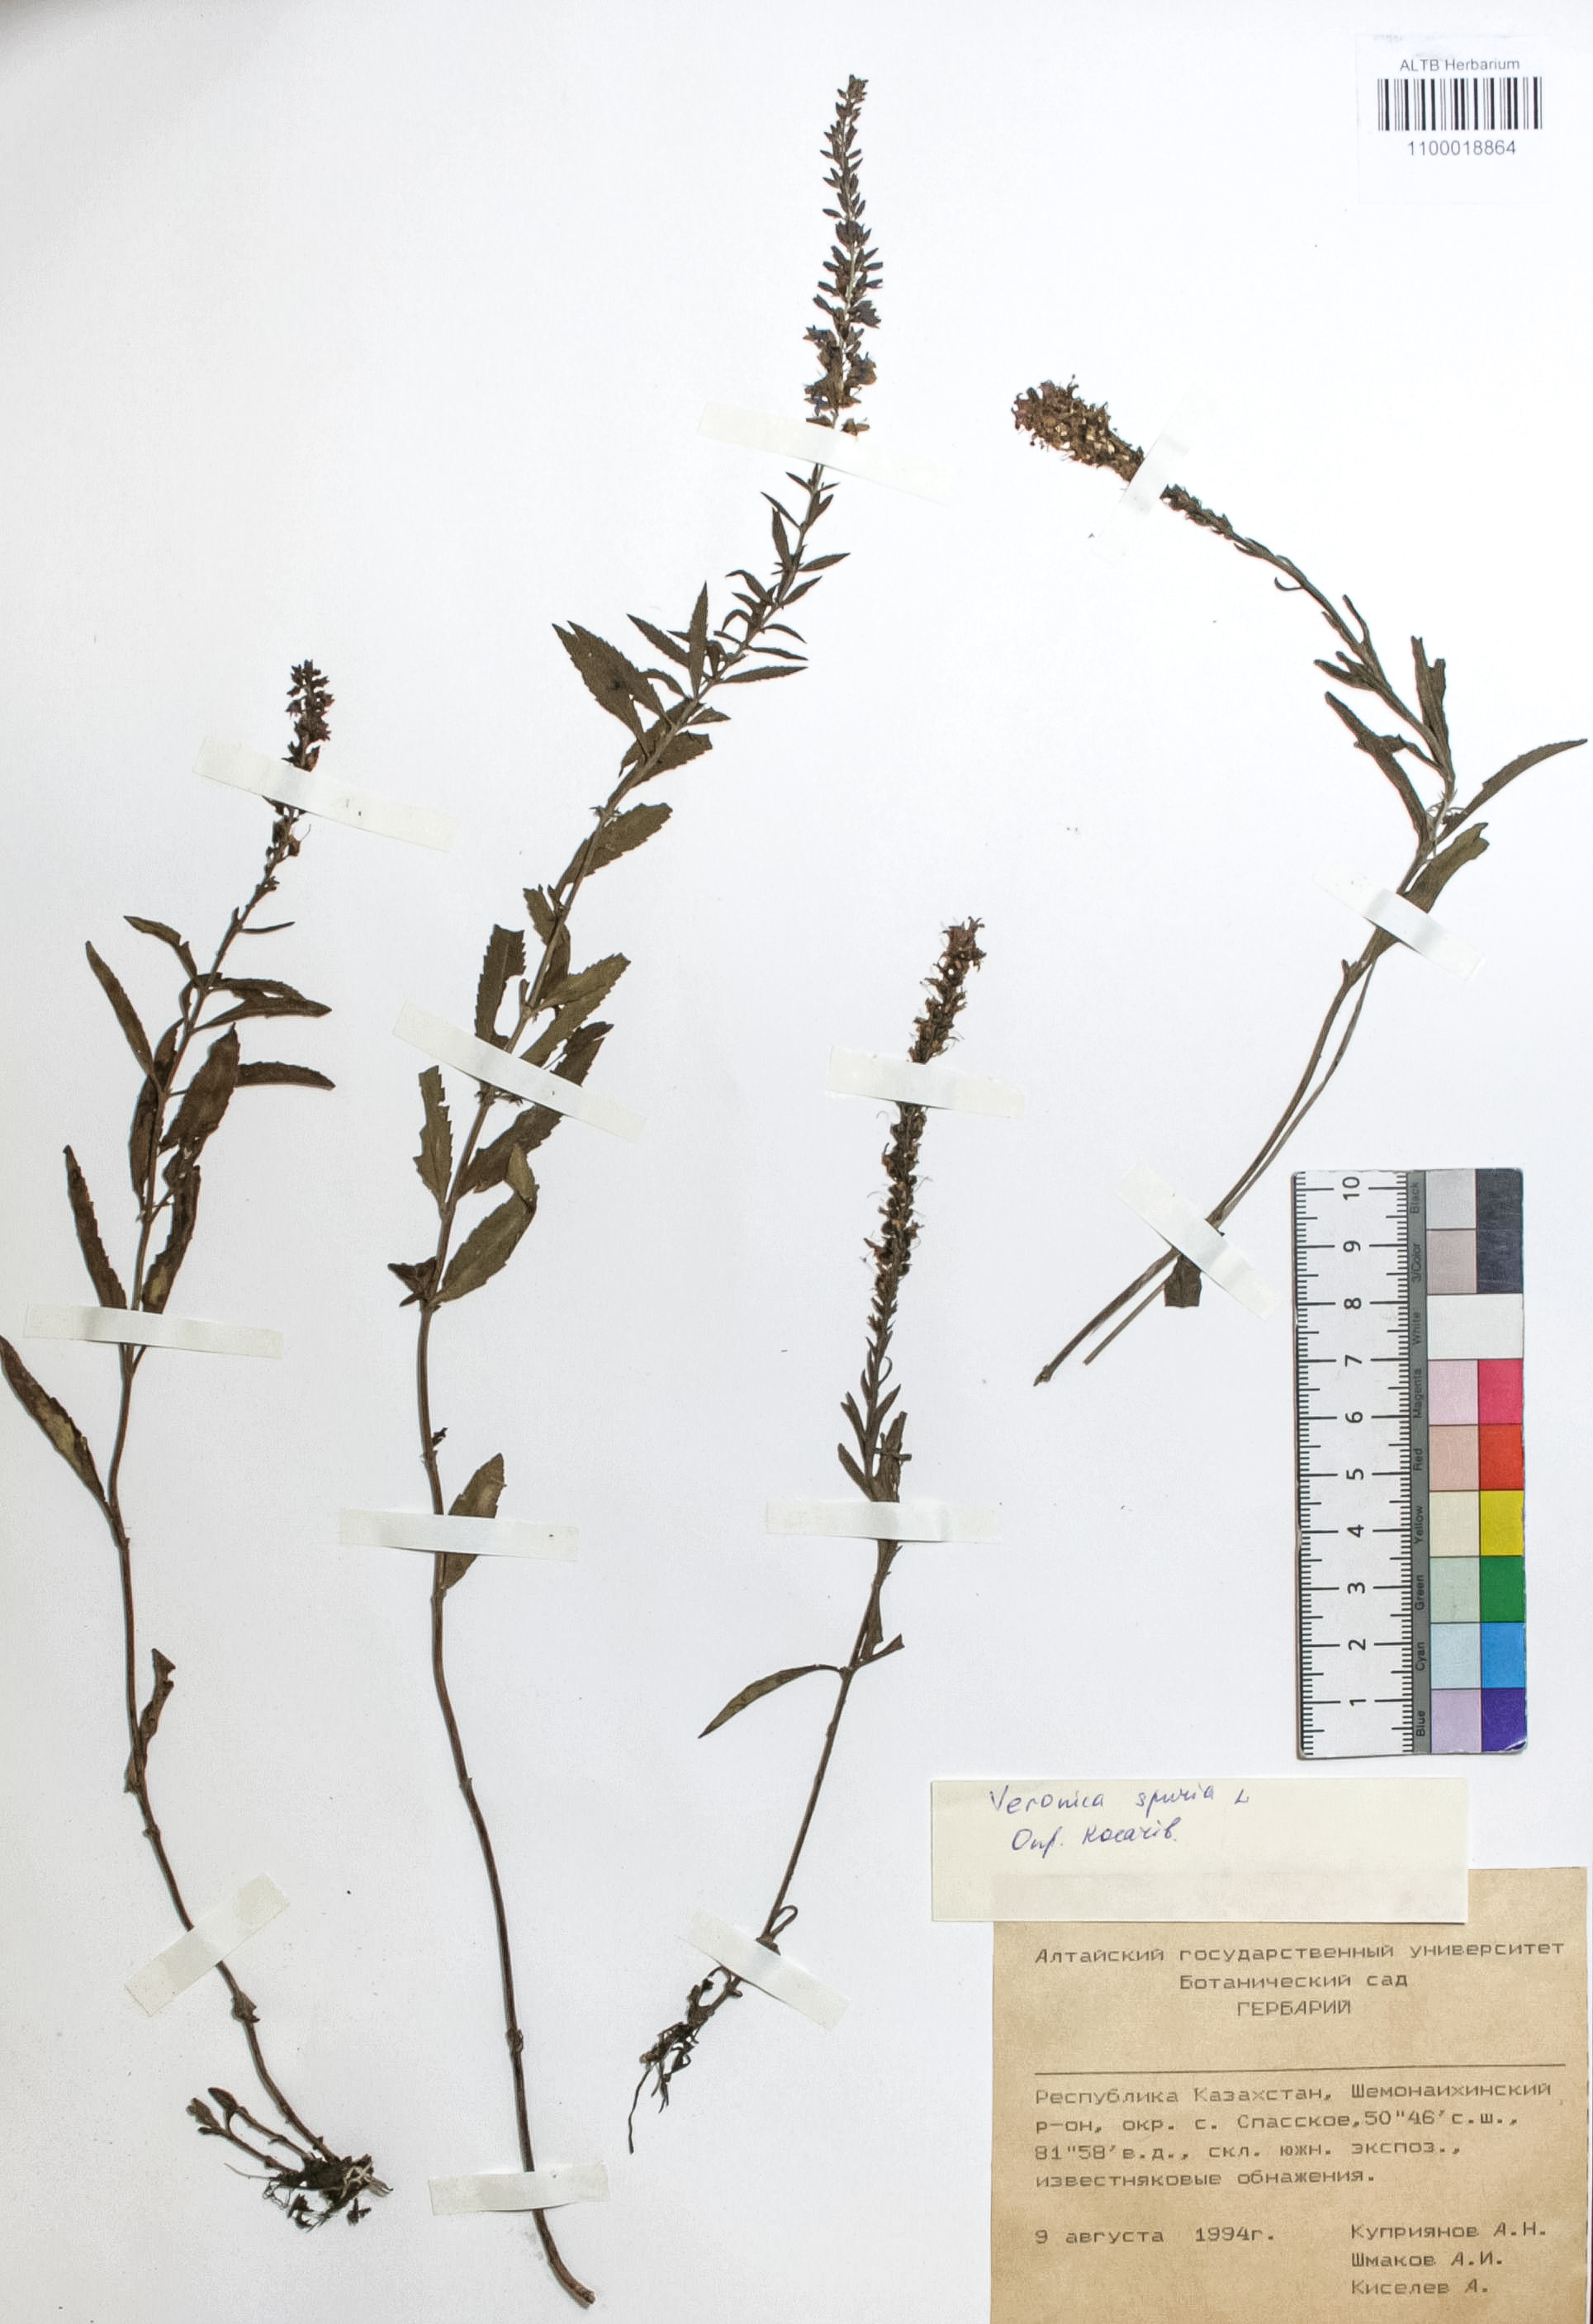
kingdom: Plantae
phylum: Tracheophyta
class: Magnoliopsida
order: Lamiales
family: Plantaginaceae
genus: Veronica
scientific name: Veronica spuria
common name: Bastard speedwell
